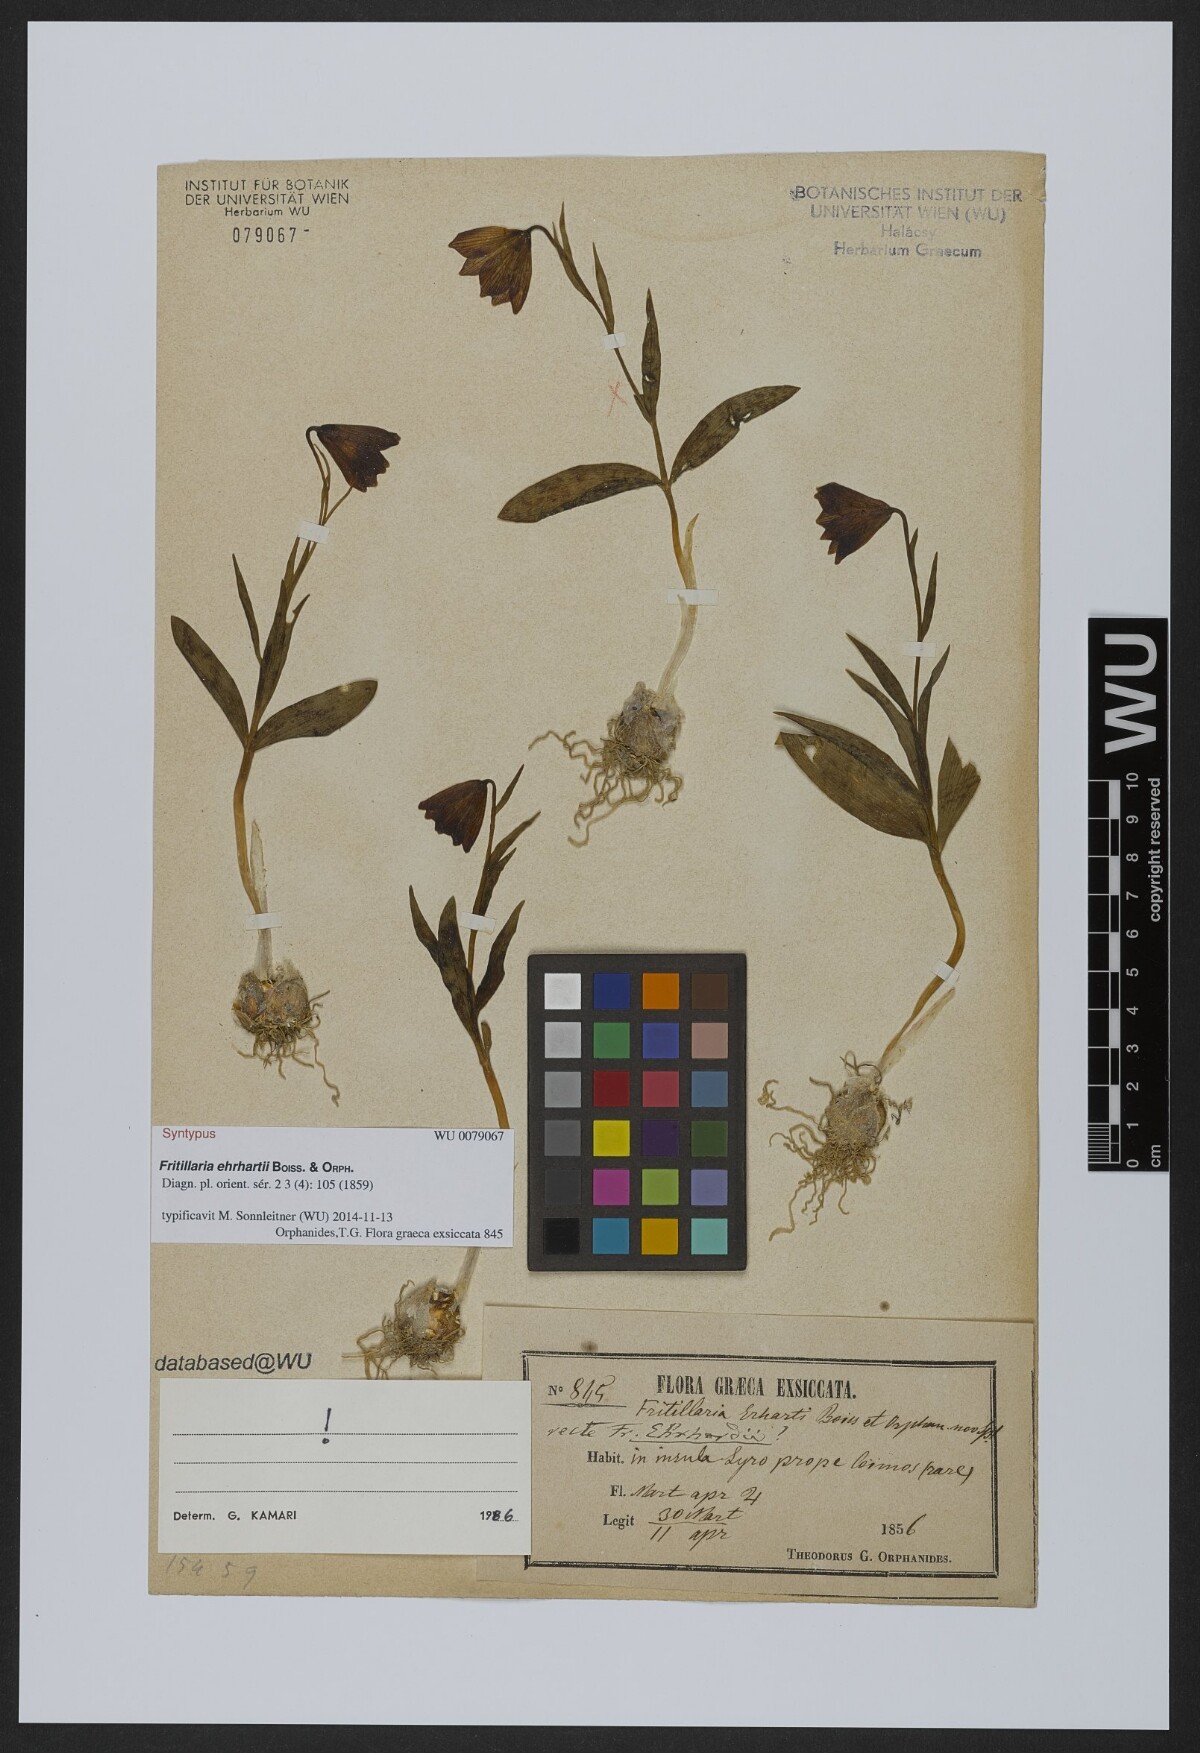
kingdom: Plantae
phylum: Tracheophyta
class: Liliopsida
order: Liliales
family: Liliaceae
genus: Fritillaria
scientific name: Fritillaria ehrhartii
